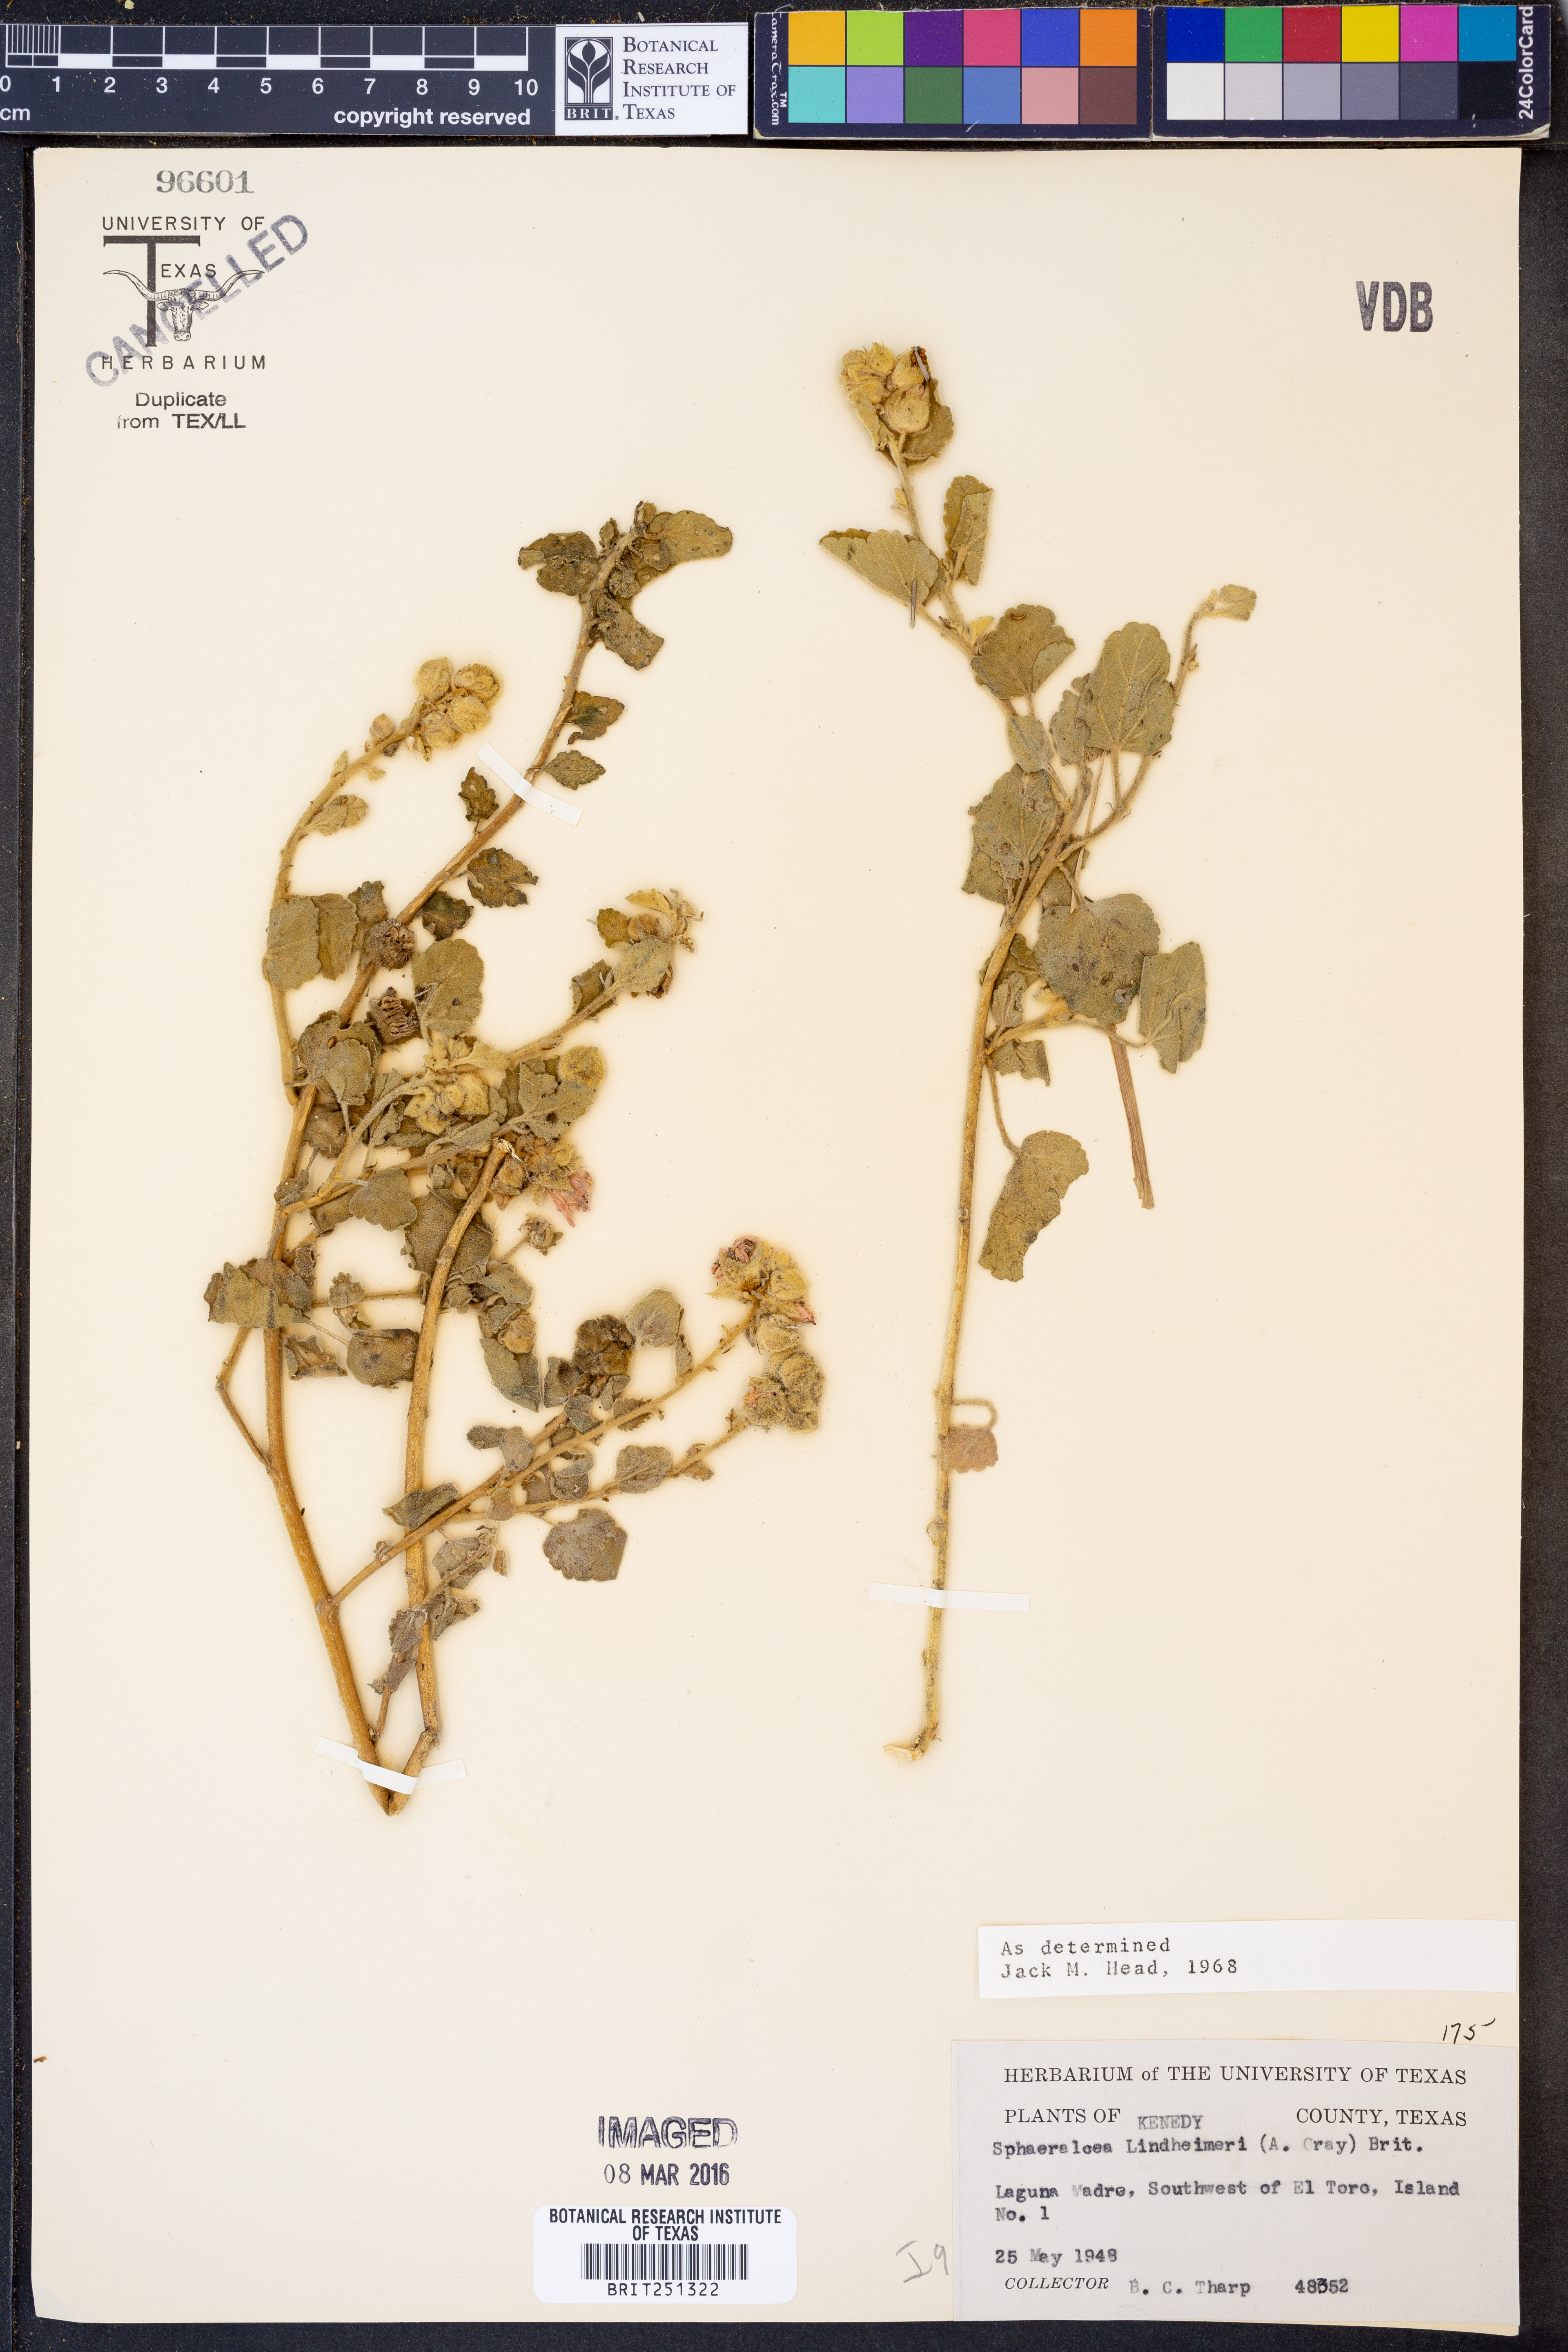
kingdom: Plantae
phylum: Tracheophyta
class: Magnoliopsida
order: Malvales
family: Malvaceae
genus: Sphaeralcea
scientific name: Sphaeralcea lindheimeri
